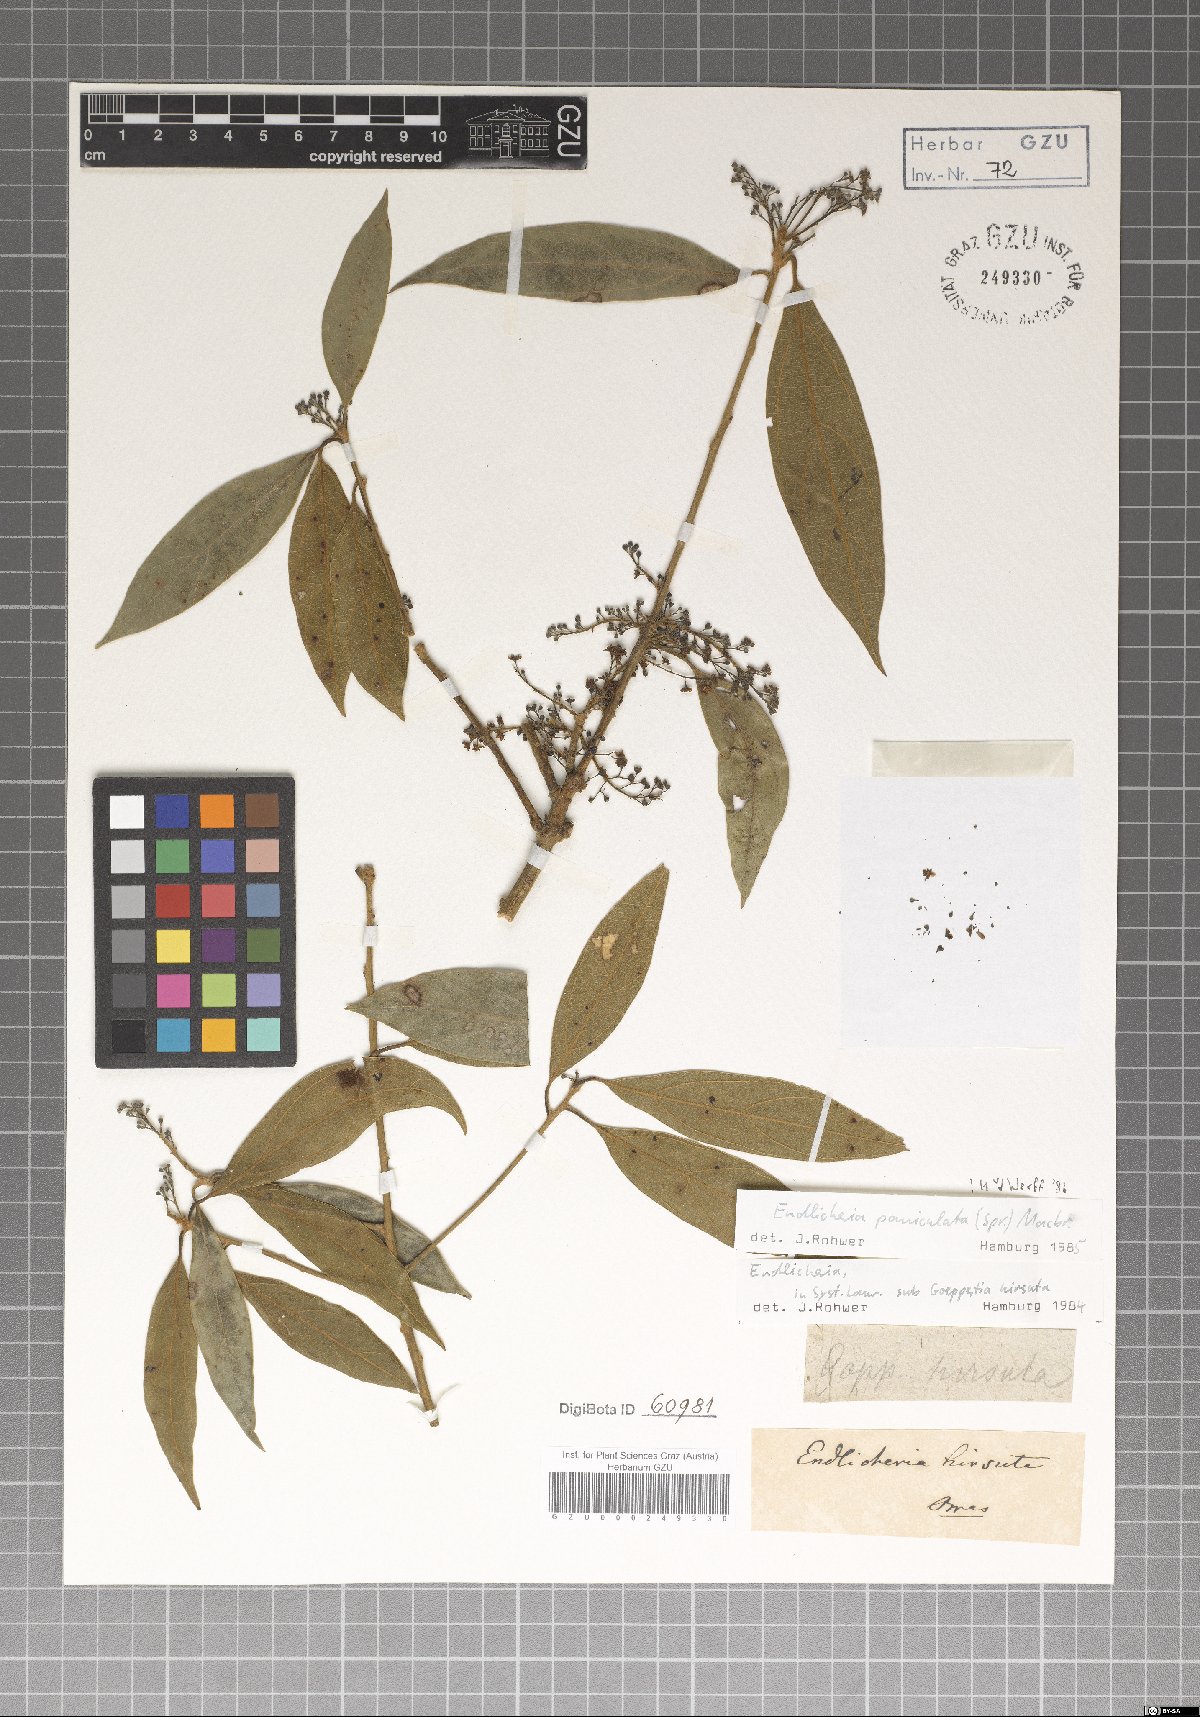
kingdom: Plantae
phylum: Tracheophyta
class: Magnoliopsida
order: Laurales
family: Lauraceae
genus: Endlicheria
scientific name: Endlicheria paniculata
